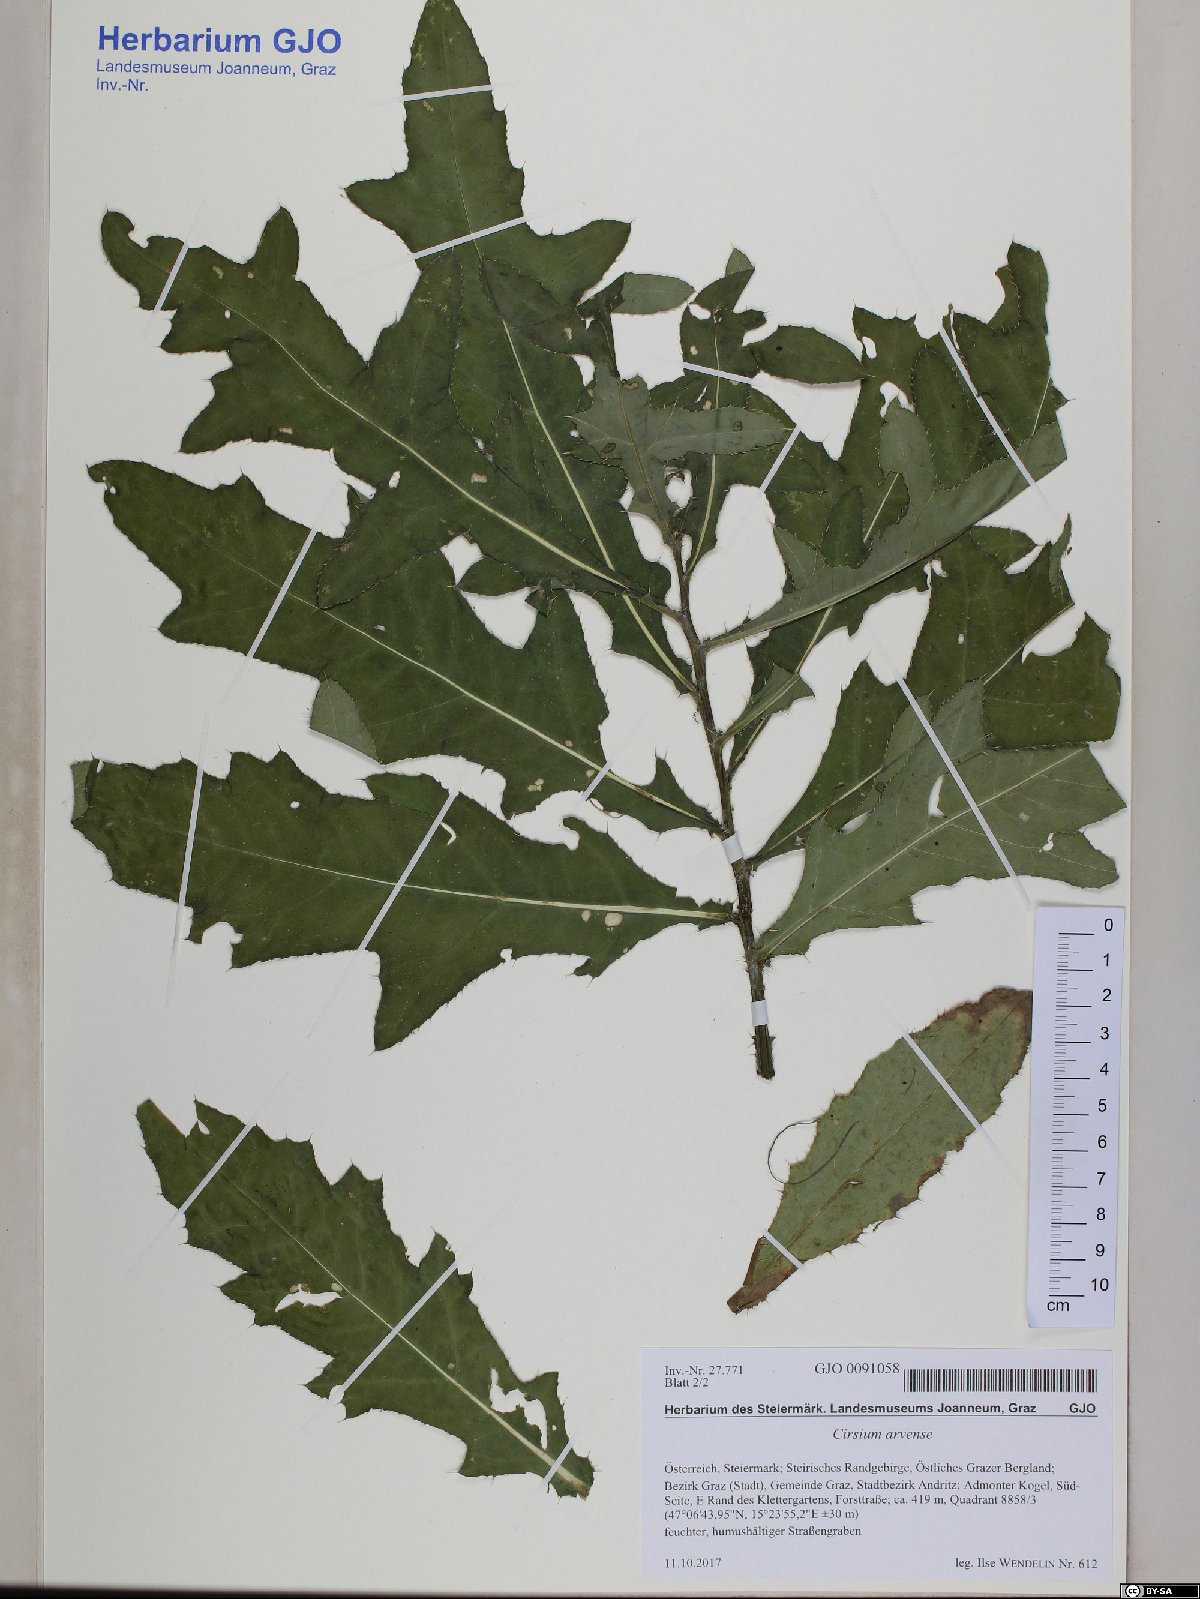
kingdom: Plantae
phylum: Tracheophyta
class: Magnoliopsida
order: Asterales
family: Asteraceae
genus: Cirsium
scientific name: Cirsium arvense
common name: Creeping thistle
